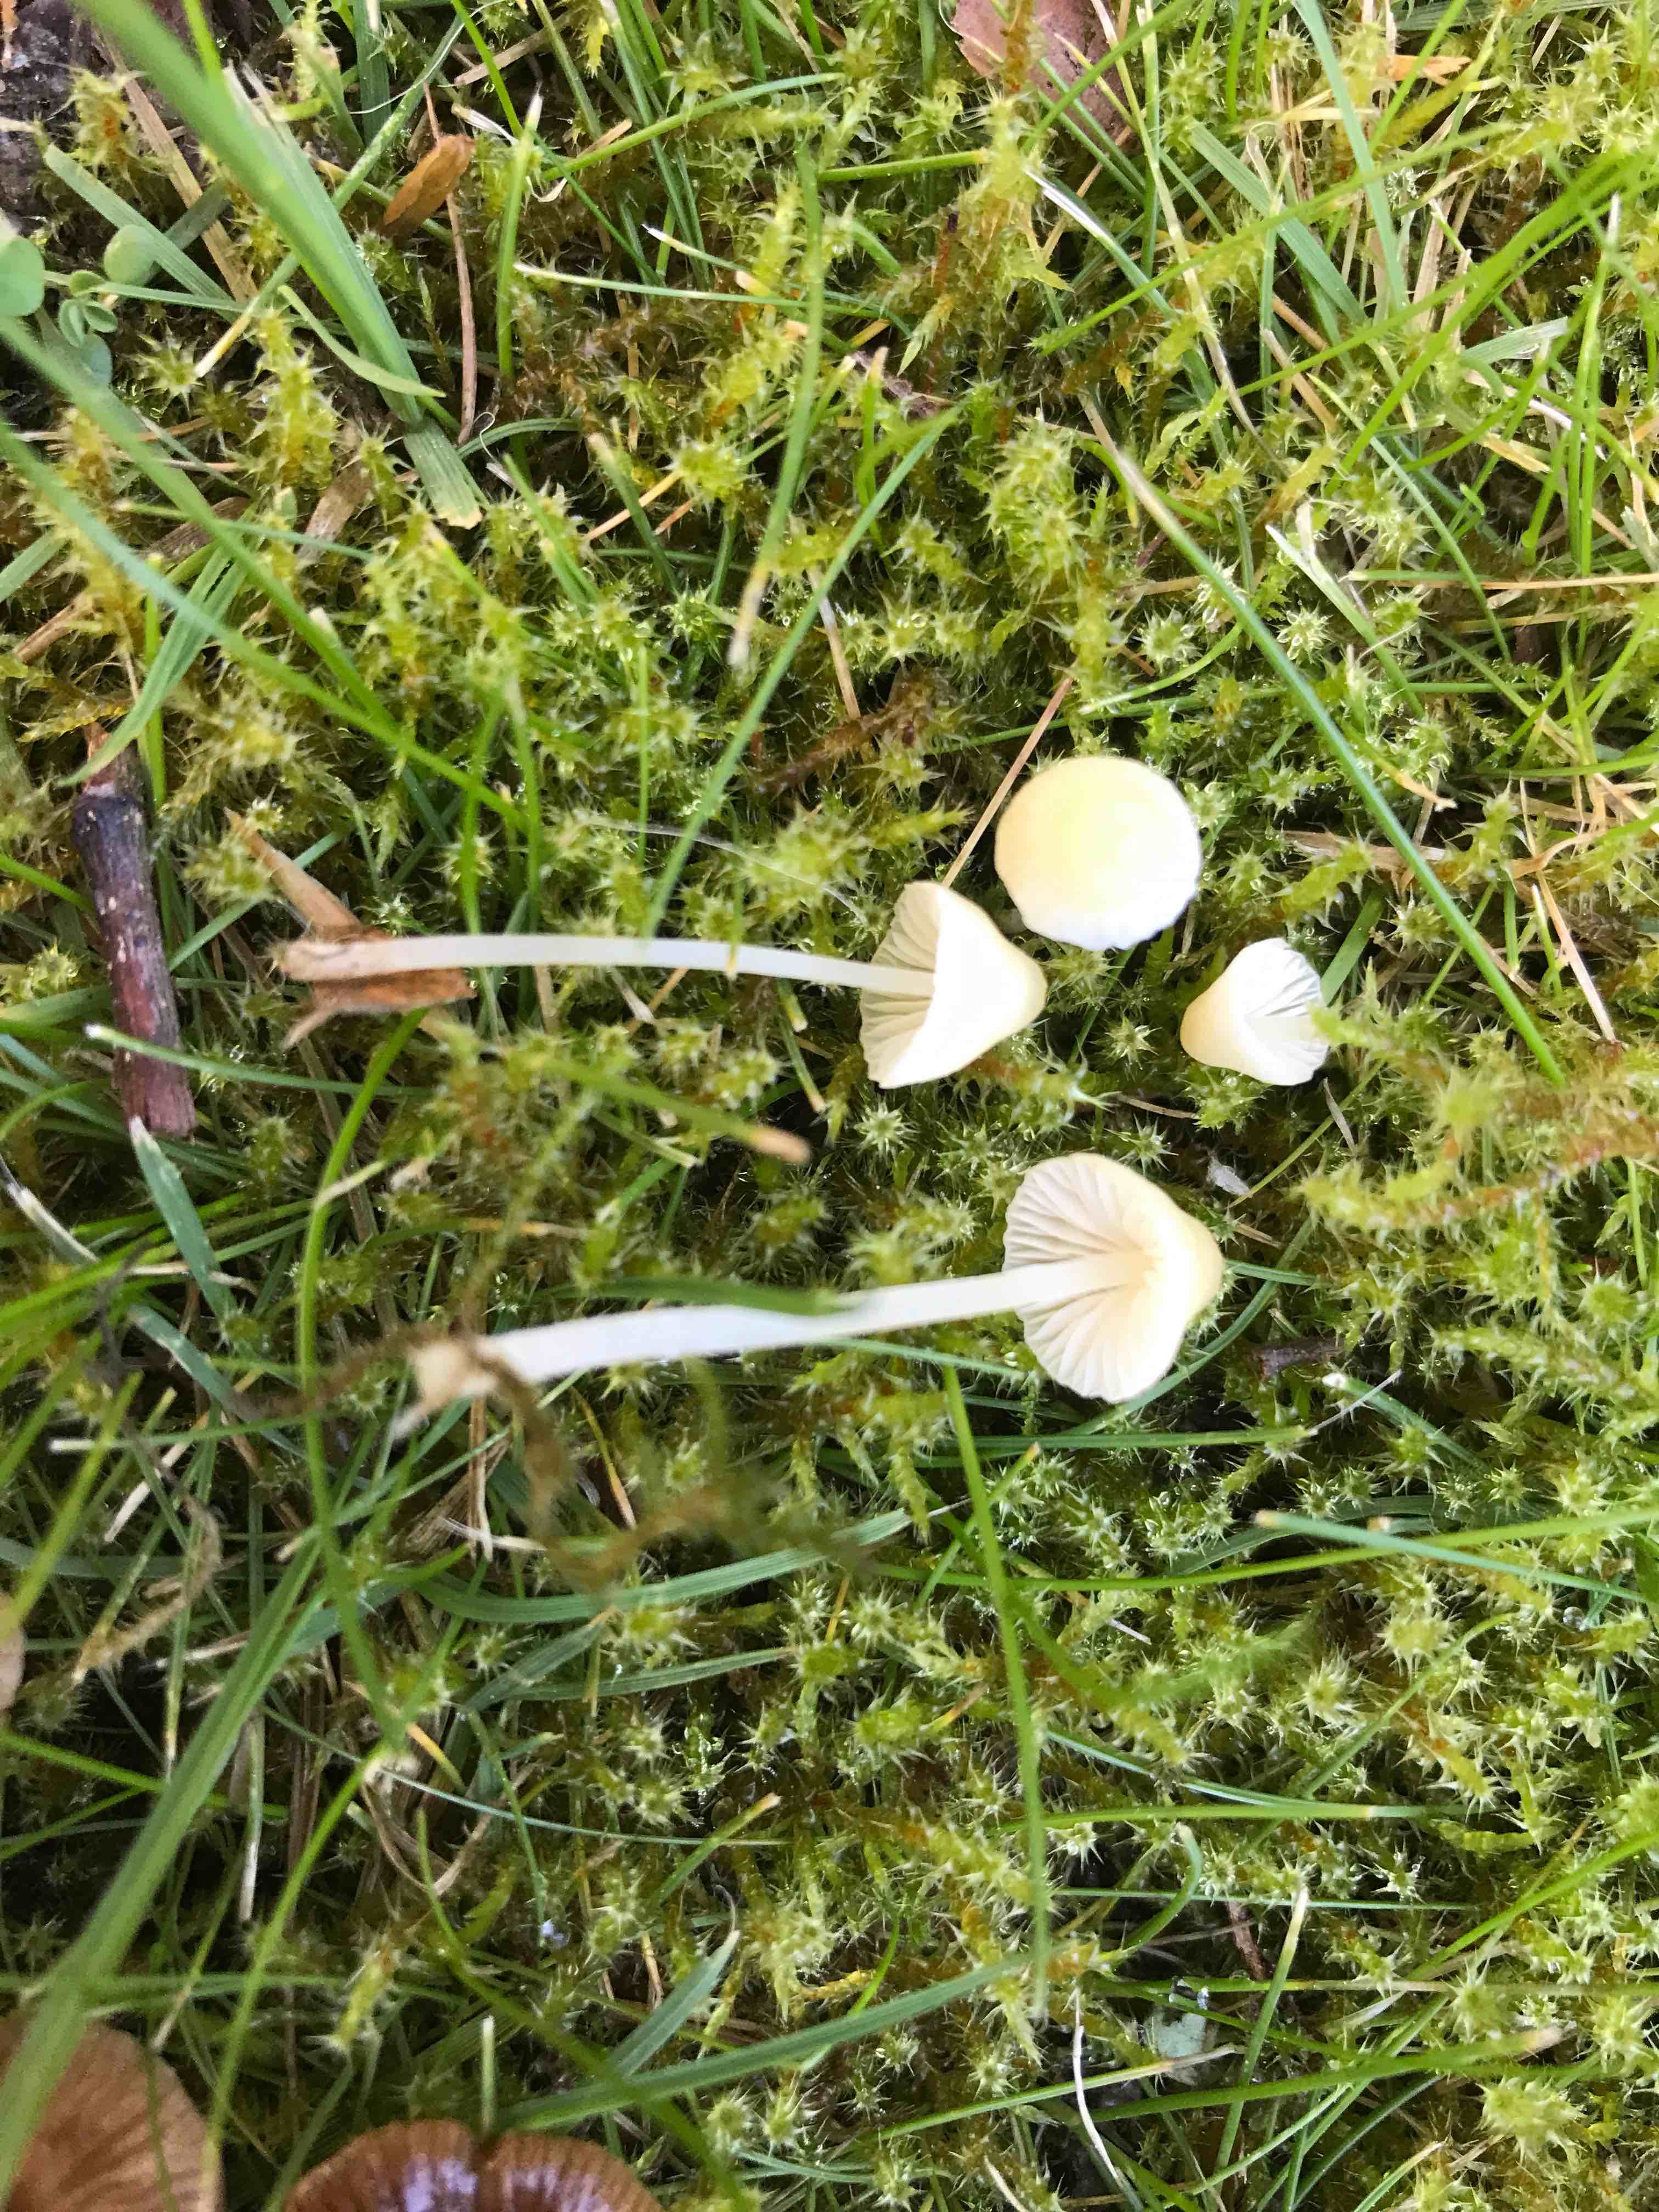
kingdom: Fungi
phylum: Basidiomycota
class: Agaricomycetes
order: Agaricales
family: Mycenaceae
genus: Mycena
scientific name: Mycena epipterygia
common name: gulstokket huesvamp
